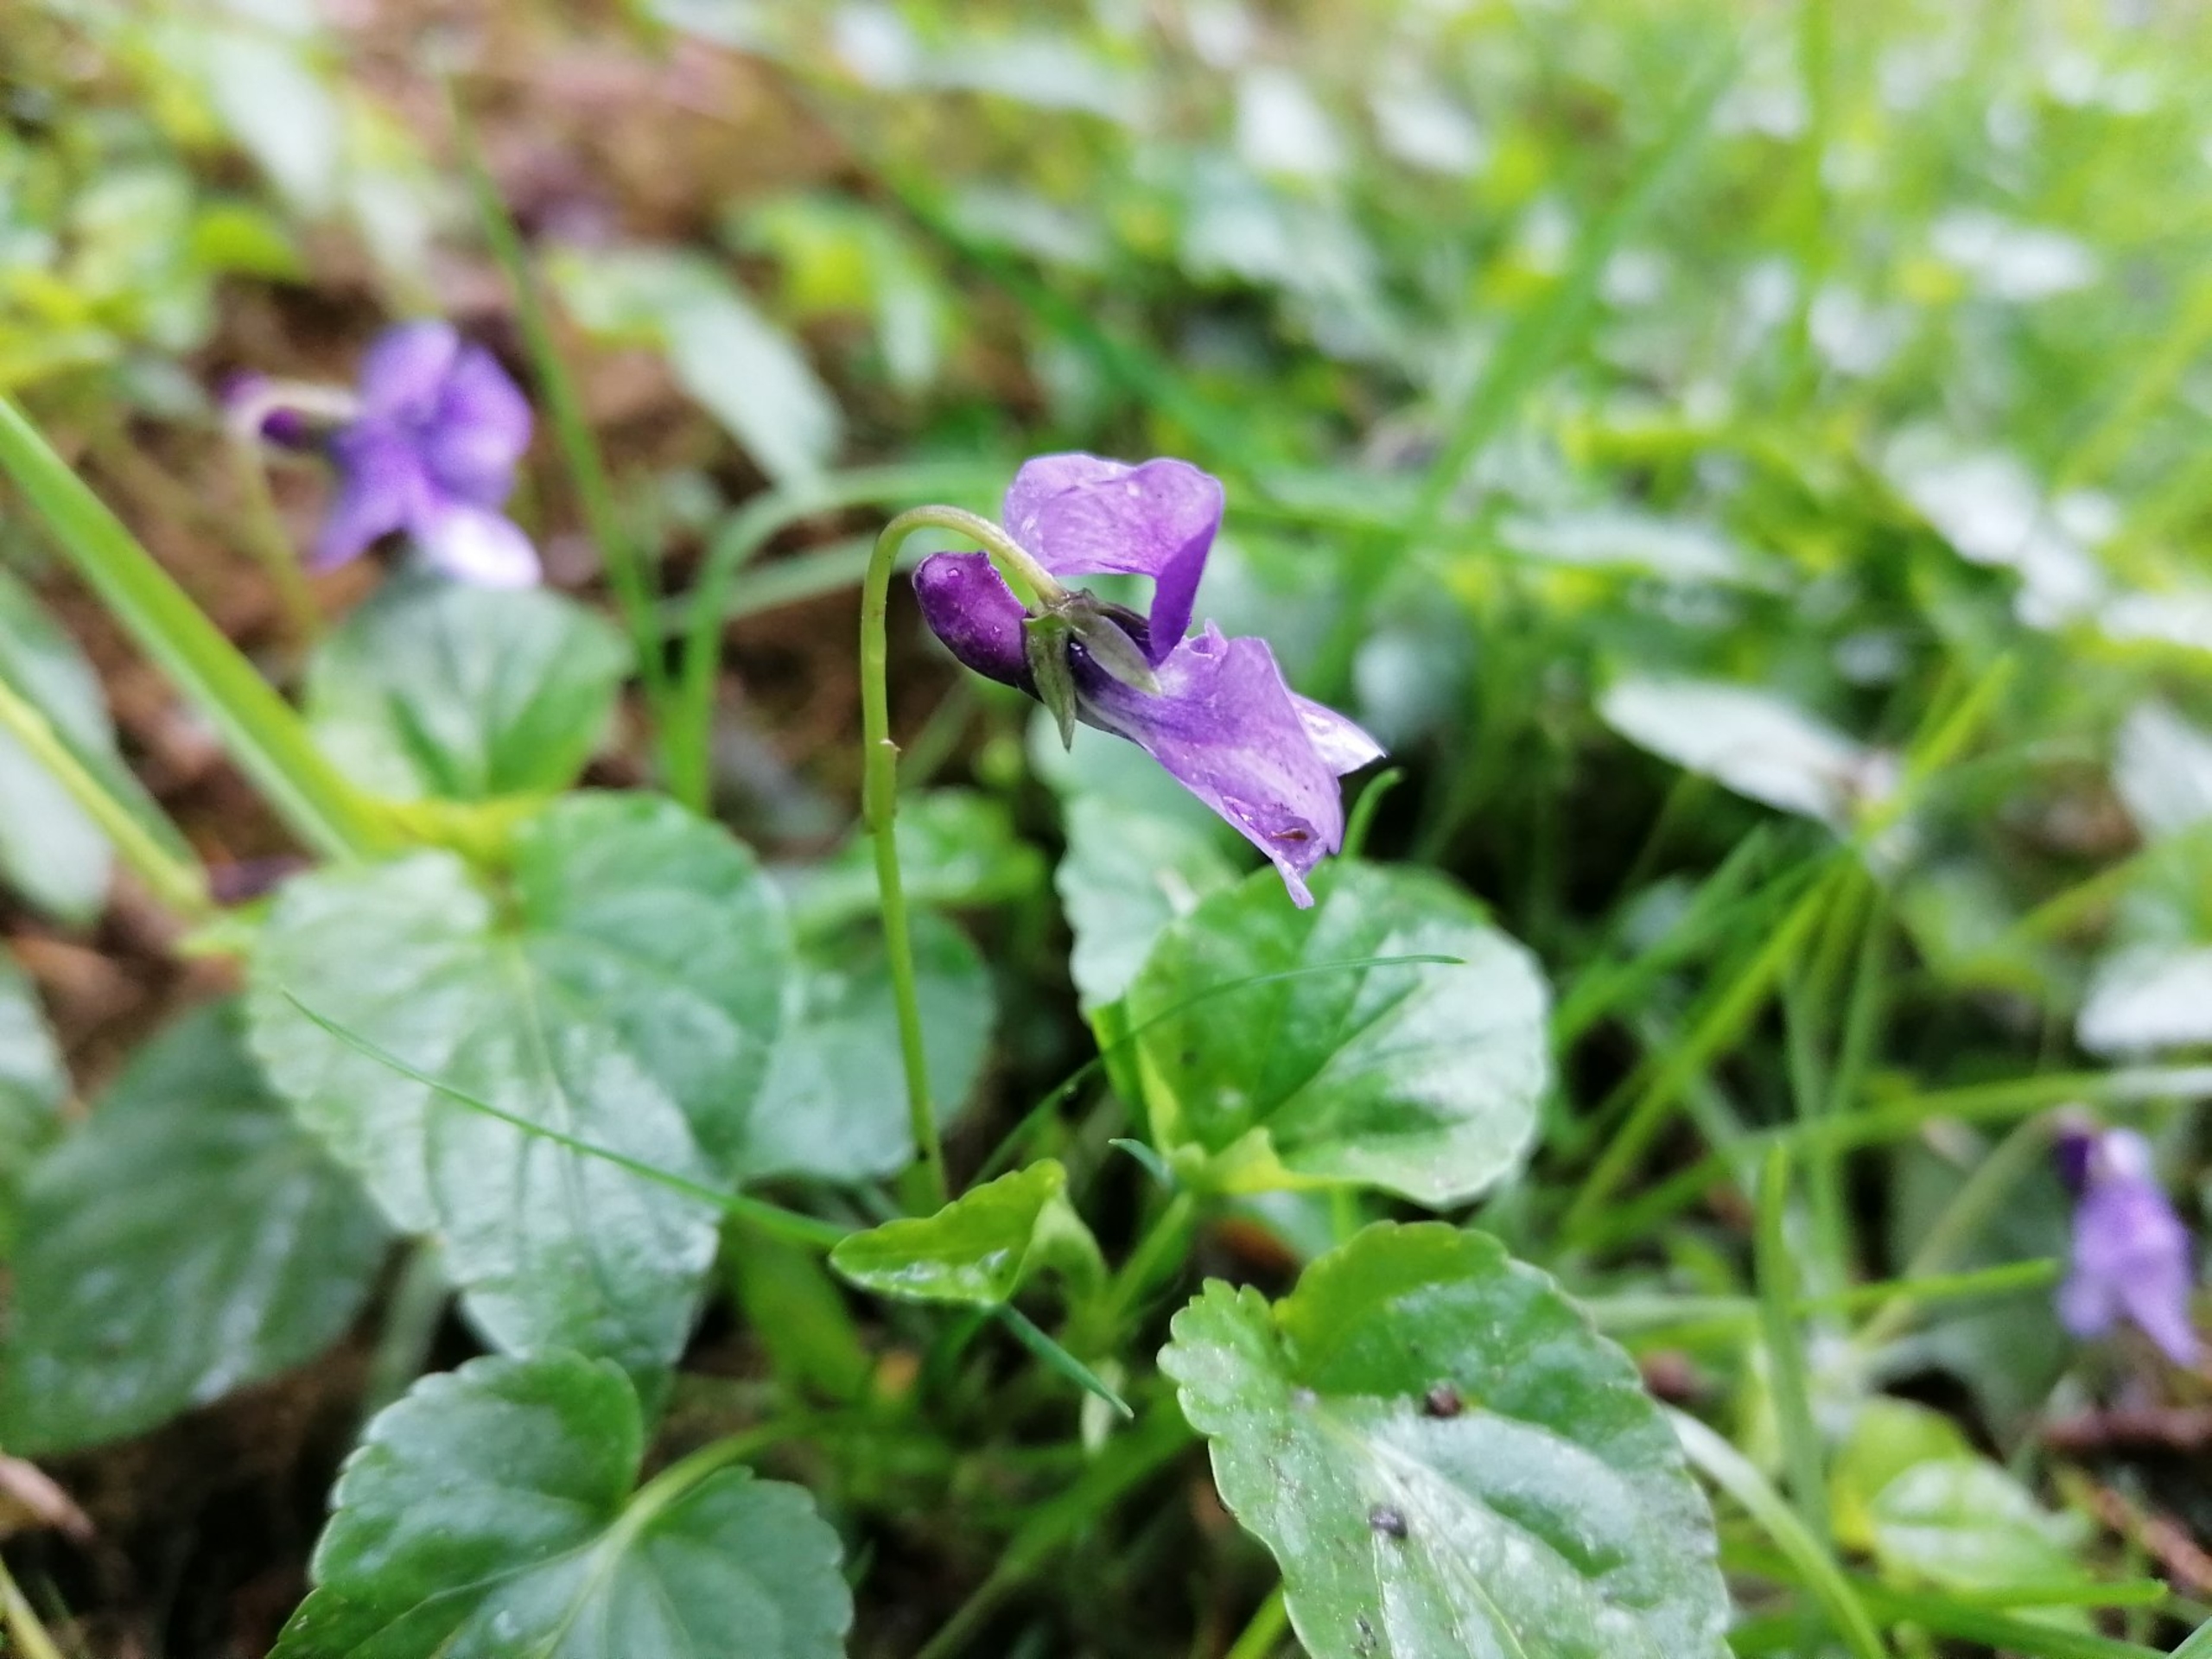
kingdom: Plantae
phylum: Tracheophyta
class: Magnoliopsida
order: Malpighiales
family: Violaceae
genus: Viola
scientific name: Viola reichenbachiana
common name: Skov-viol
